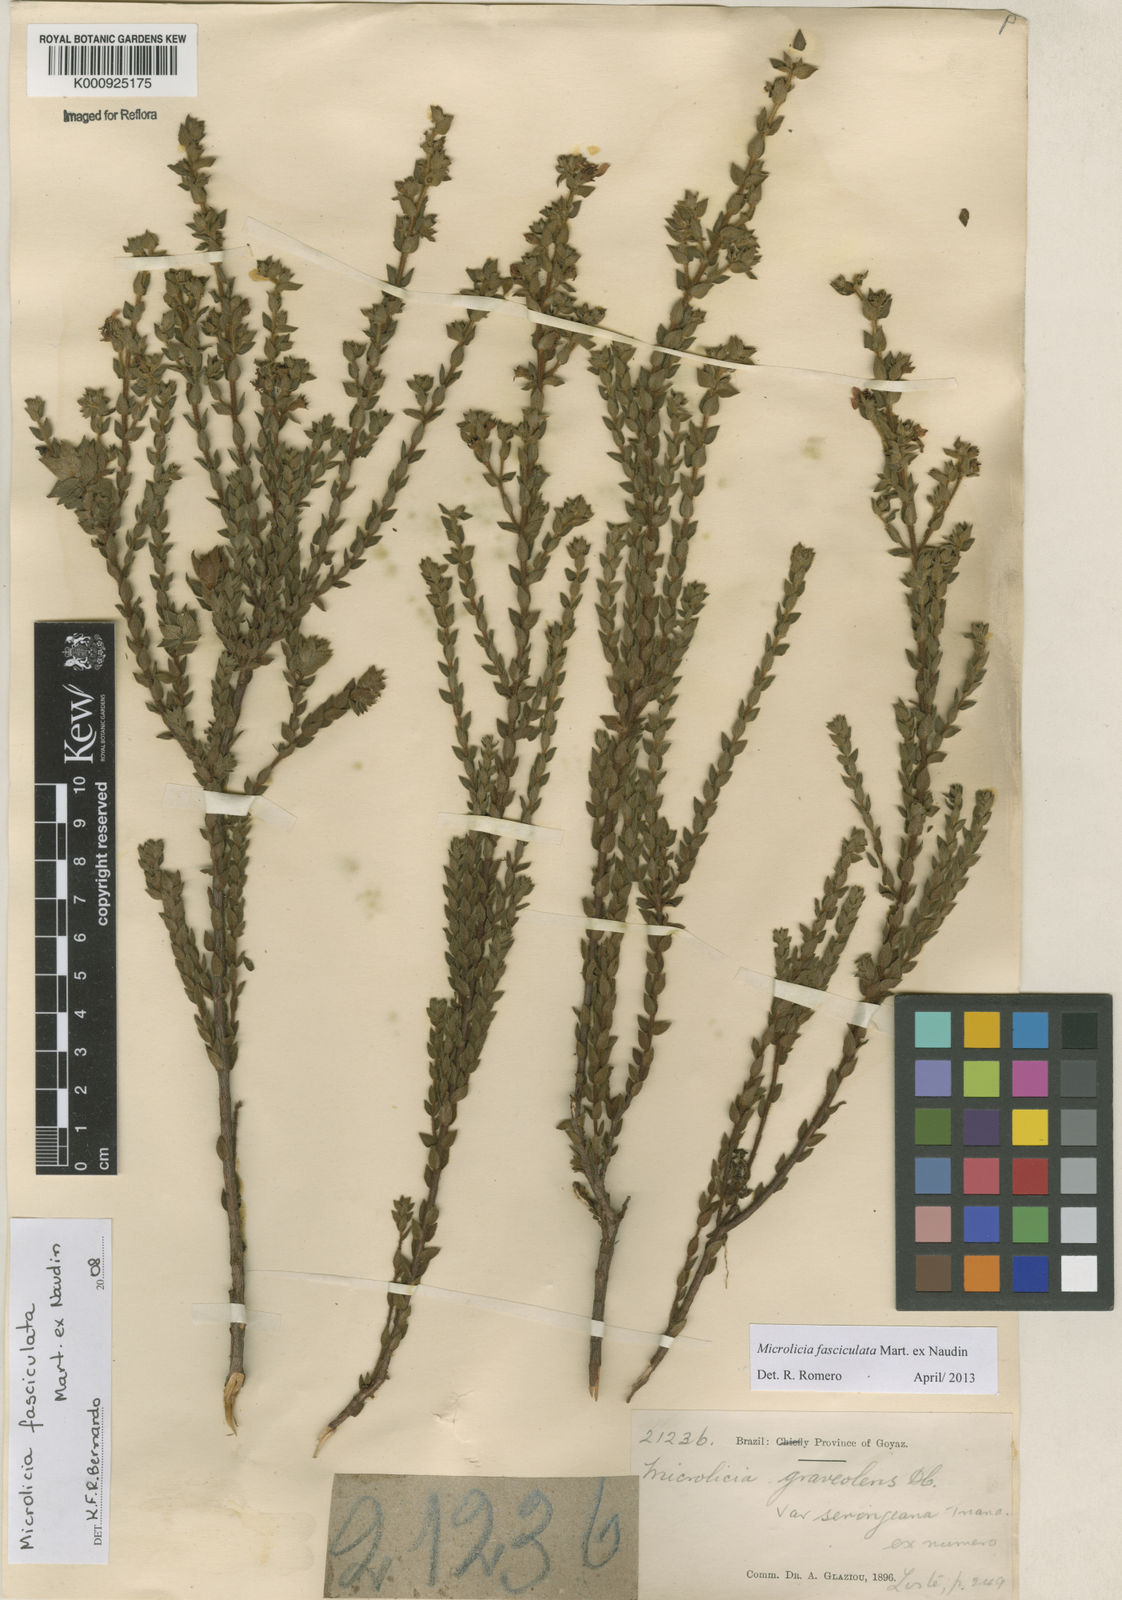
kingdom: Plantae
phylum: Tracheophyta
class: Magnoliopsida
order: Myrtales
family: Melastomataceae
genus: Microlicia
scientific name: Microlicia fasciculata
